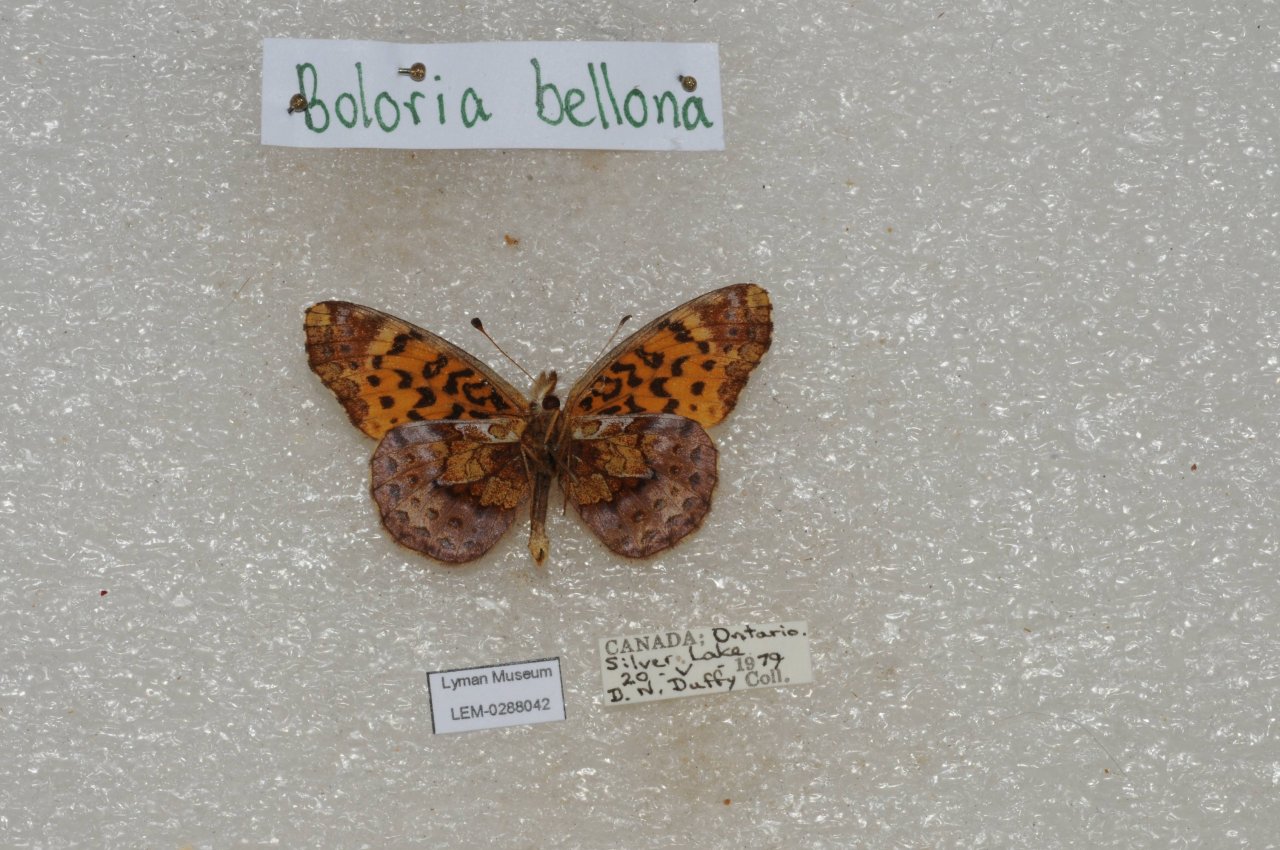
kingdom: Animalia
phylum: Arthropoda
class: Insecta
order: Lepidoptera
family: Nymphalidae
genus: Clossiana
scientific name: Clossiana toddi
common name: Meadow Fritillary
